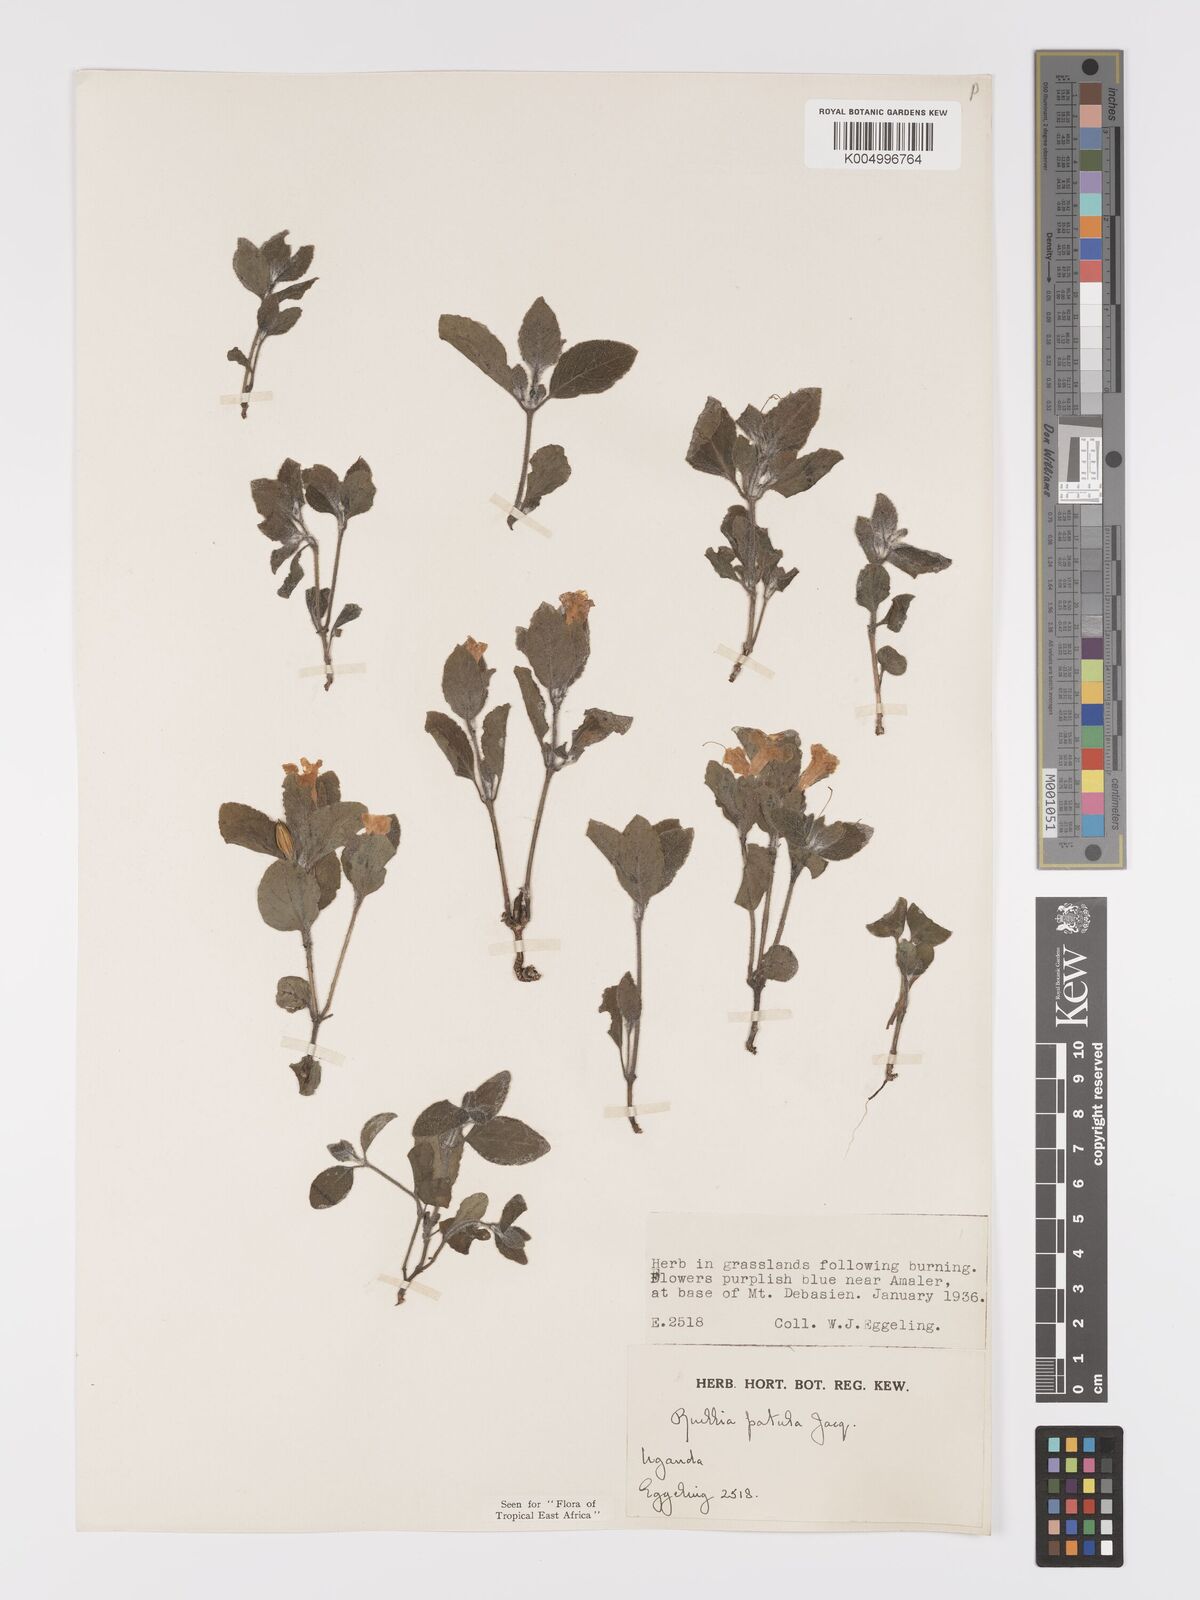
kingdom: Plantae
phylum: Tracheophyta
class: Magnoliopsida
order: Lamiales
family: Acanthaceae
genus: Ruellia
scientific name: Ruellia patula
